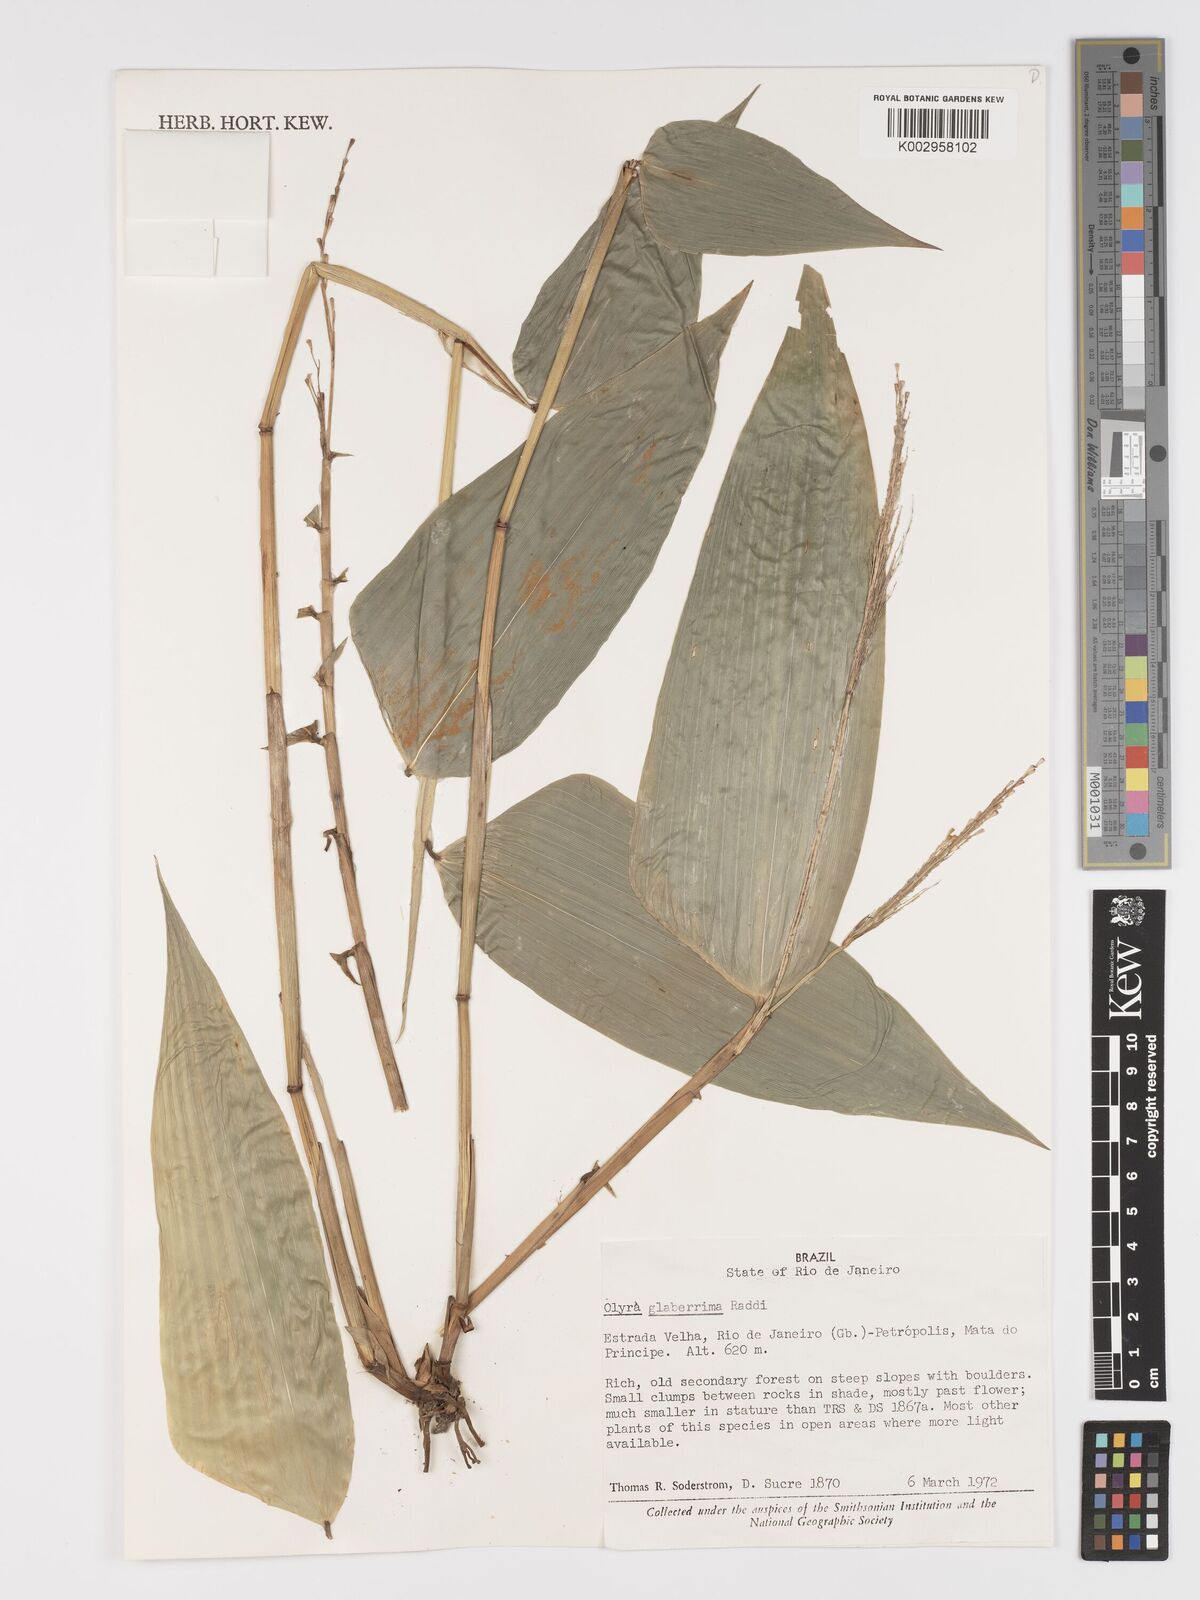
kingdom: Plantae
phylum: Tracheophyta
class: Liliopsida
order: Poales
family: Poaceae
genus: Olyra
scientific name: Olyra glaberrima
